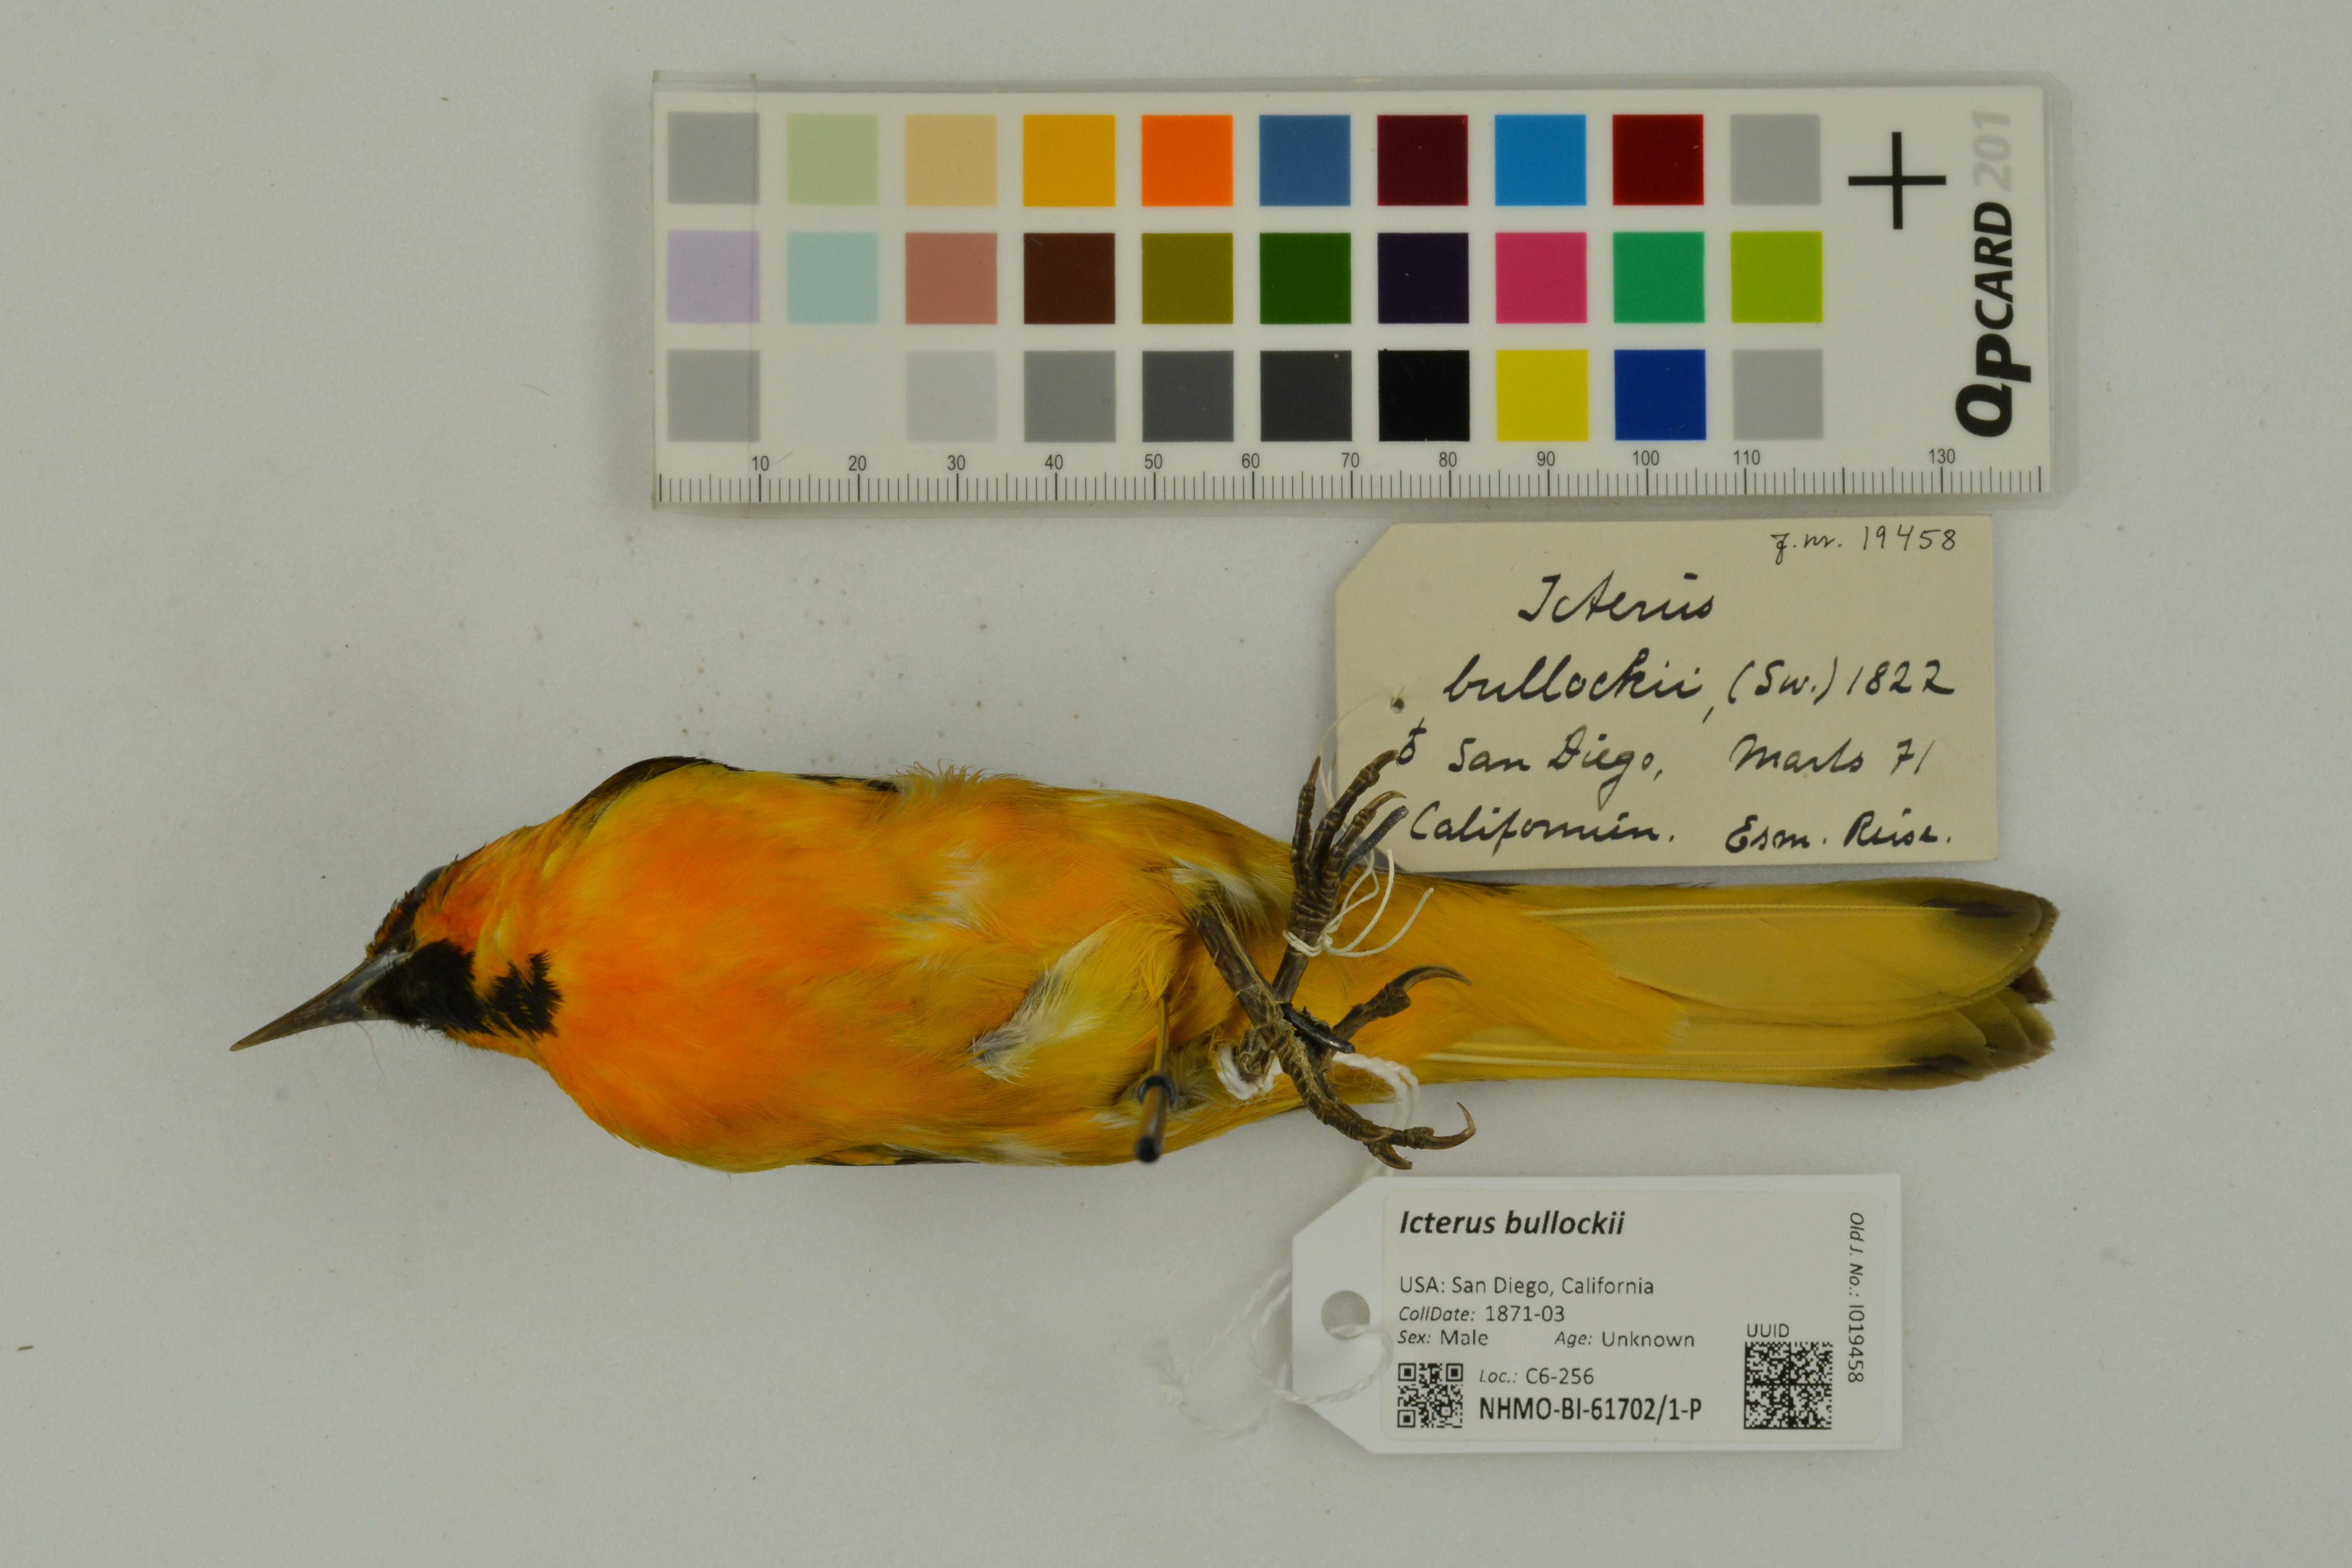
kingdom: Animalia
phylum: Chordata
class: Aves
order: Passeriformes
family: Icteridae
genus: Icterus
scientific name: Icterus bullockii
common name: Bullock's oriole
